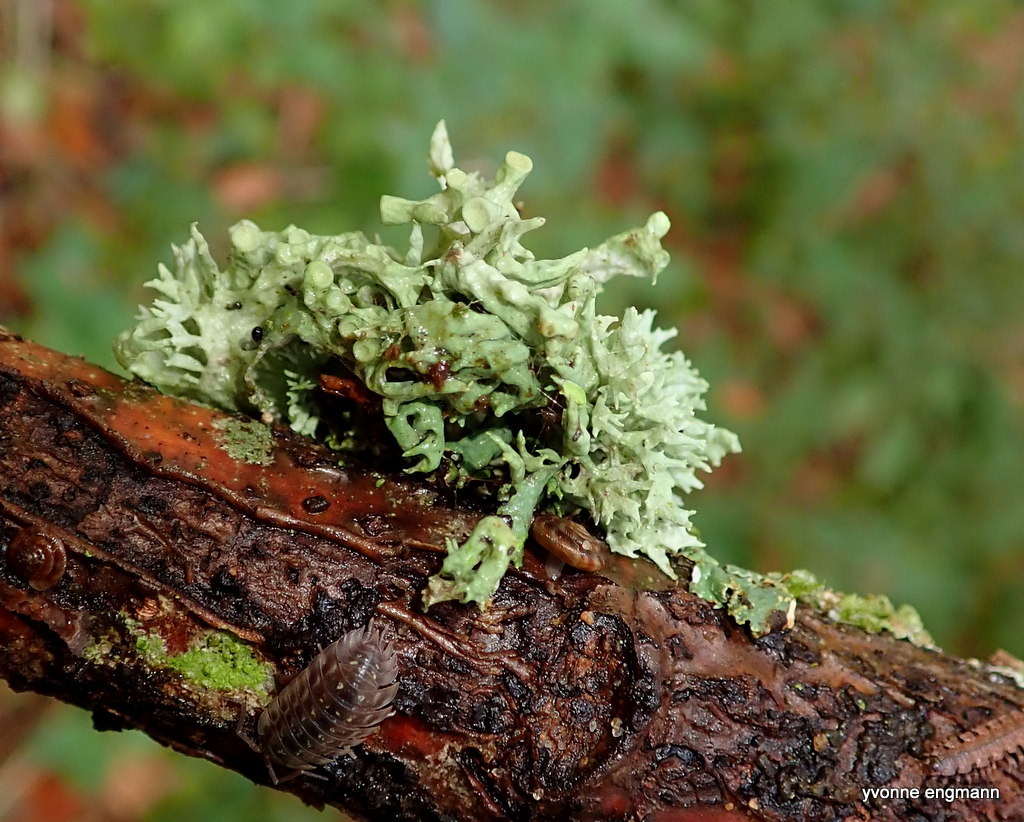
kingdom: Fungi
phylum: Ascomycota
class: Lecanoromycetes
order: Lecanorales
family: Ramalinaceae
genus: Ramalina
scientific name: Ramalina fastigiata
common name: tue-grenlav
